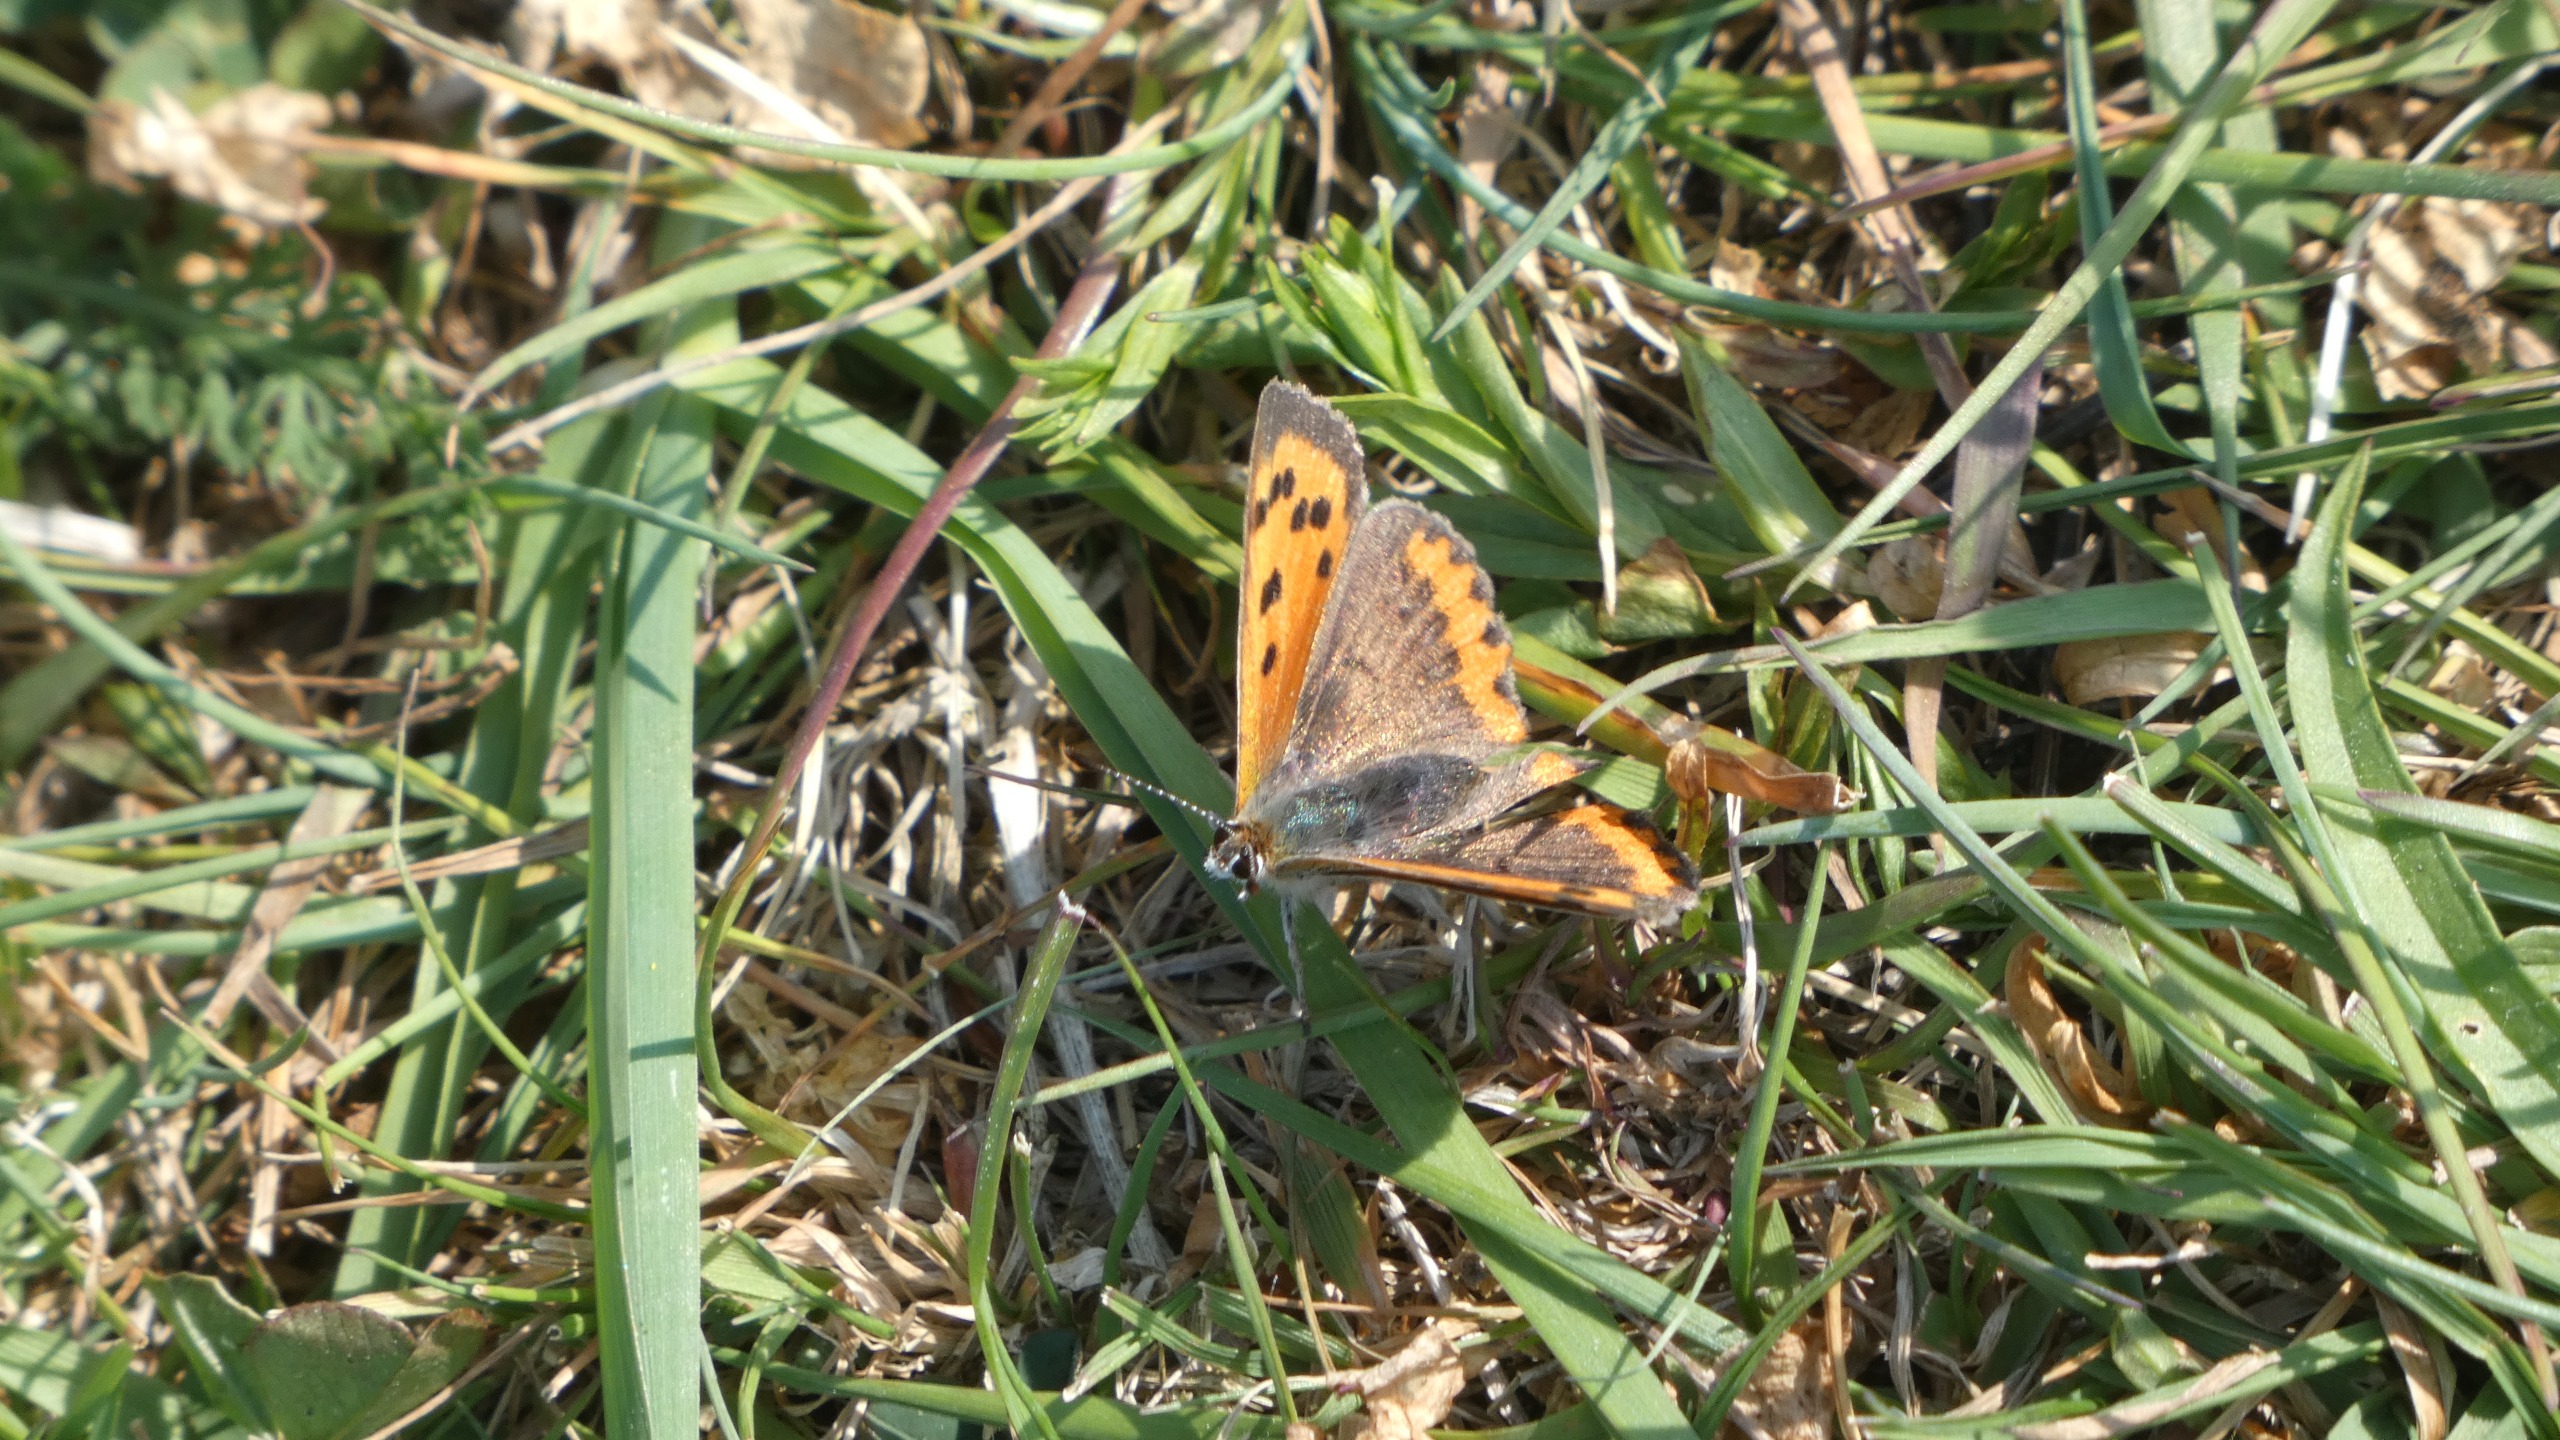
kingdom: Animalia
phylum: Arthropoda
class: Insecta
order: Lepidoptera
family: Lycaenidae
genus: Lycaena
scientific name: Lycaena phlaeas
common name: Lille ildfugl
